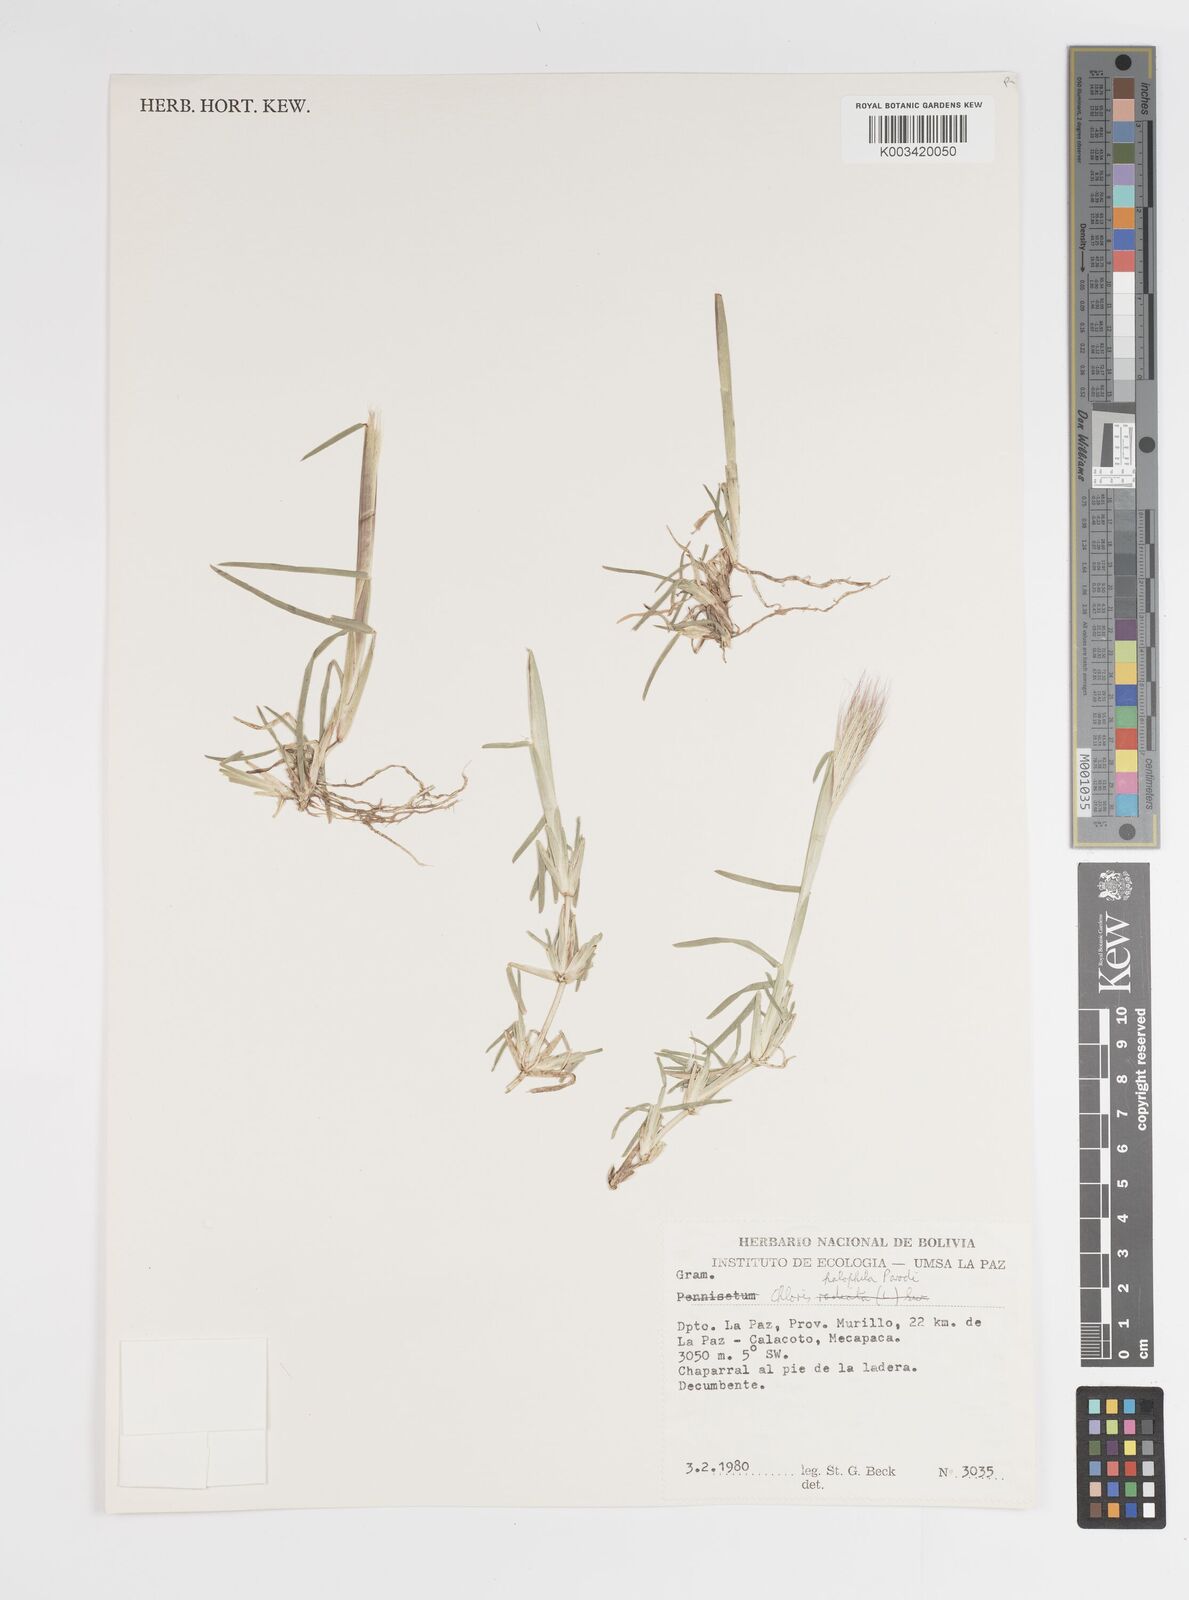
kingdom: Plantae
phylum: Tracheophyta
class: Liliopsida
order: Poales
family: Poaceae
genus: Chloris
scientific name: Chloris halophila
